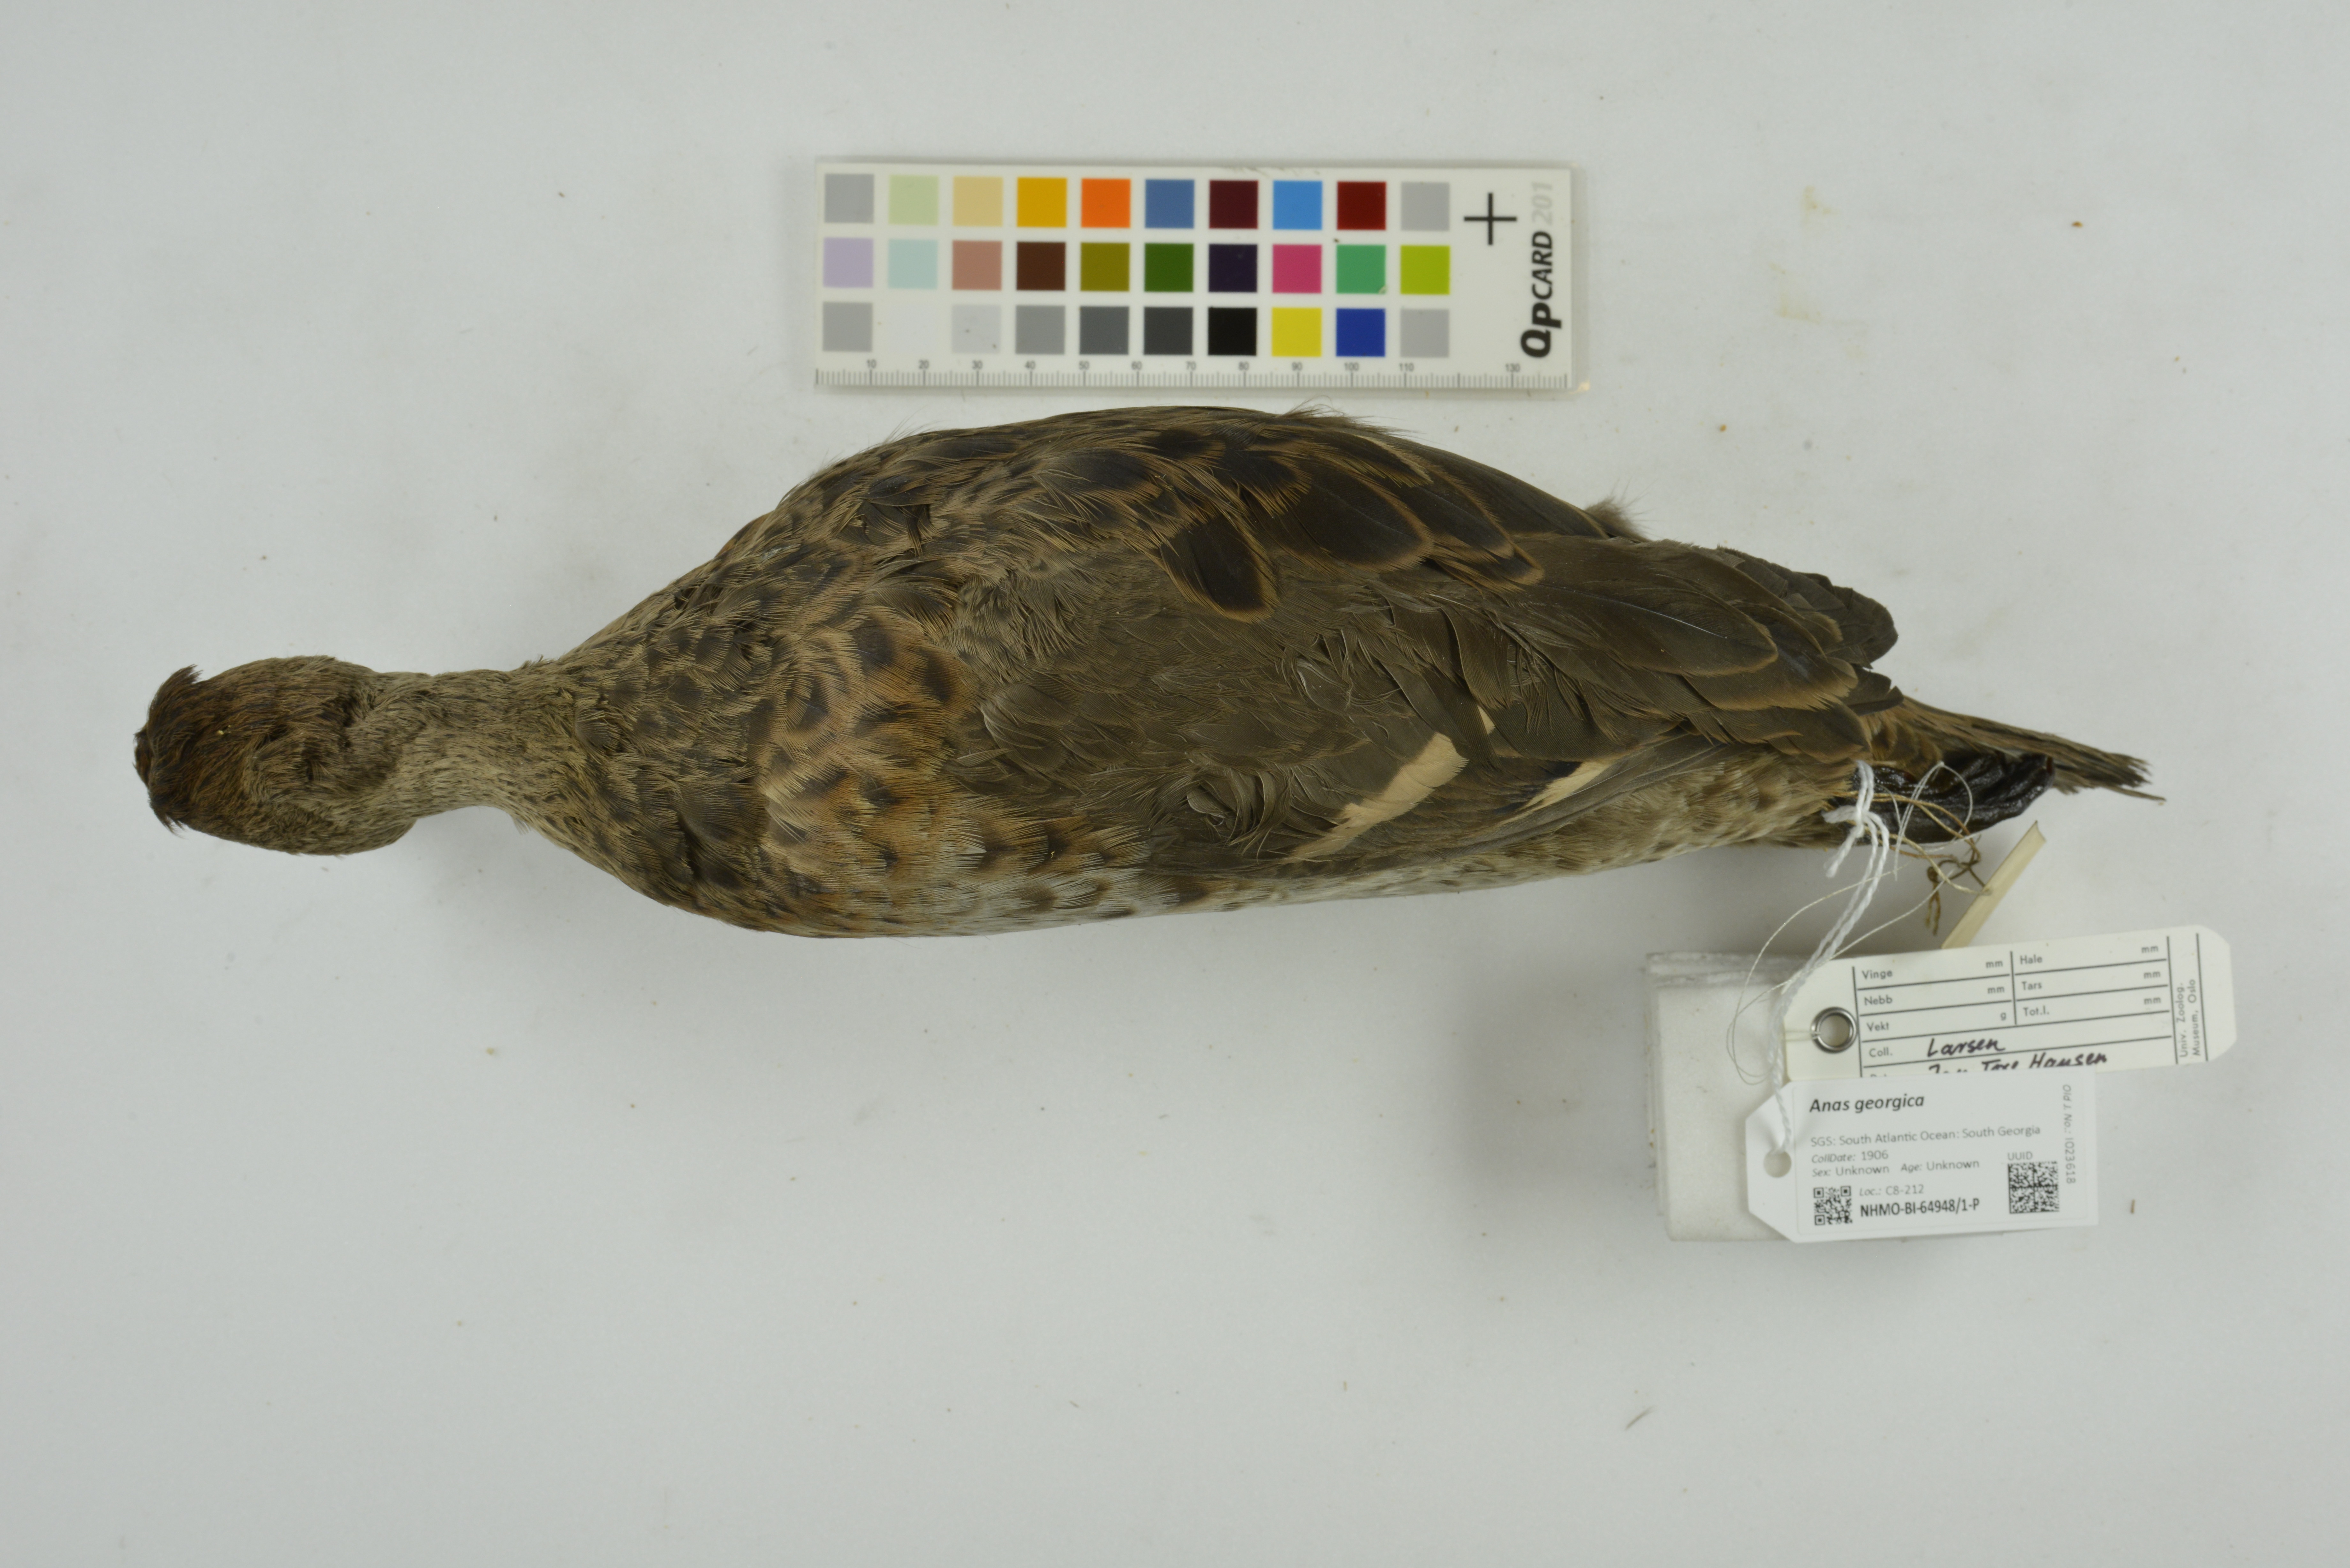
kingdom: Animalia
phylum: Chordata
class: Aves
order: Anseriformes
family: Anatidae
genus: Anas
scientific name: Anas georgica
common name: Yellow-billed pintail
